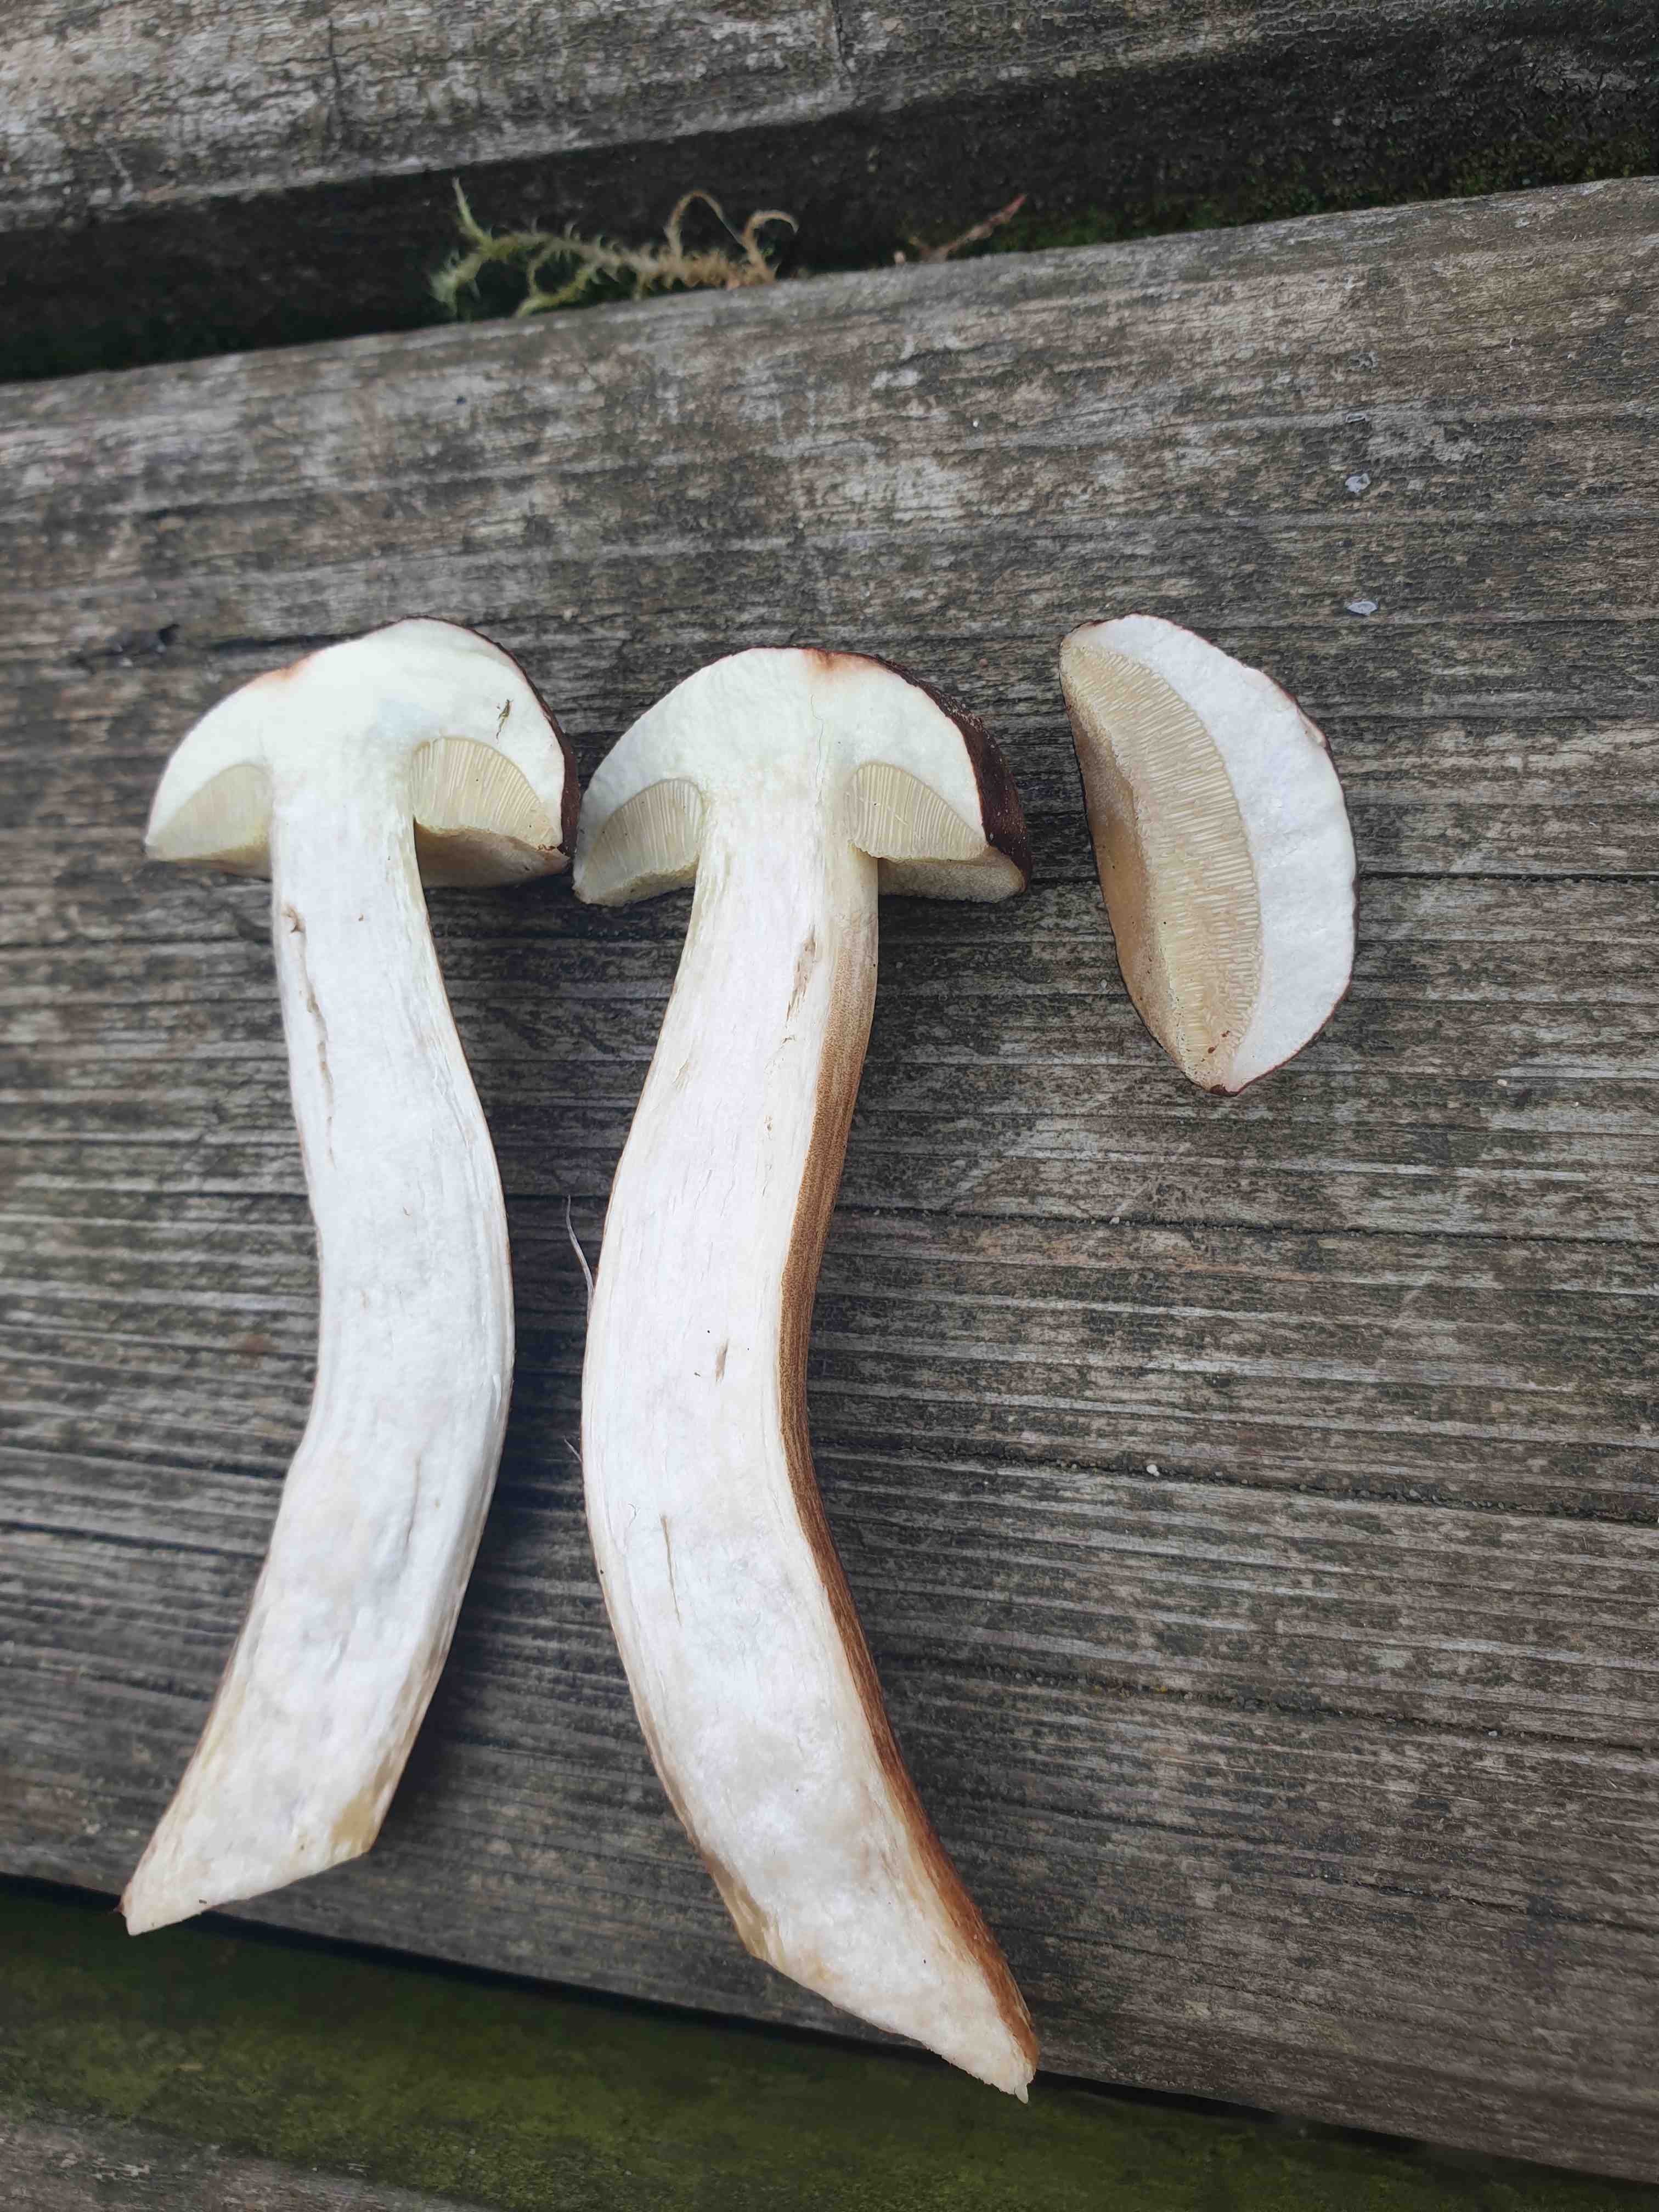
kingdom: Fungi
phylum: Basidiomycota
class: Agaricomycetes
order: Boletales
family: Boletaceae
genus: Imleria
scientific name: Imleria badia
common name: brunstokket rørhat
